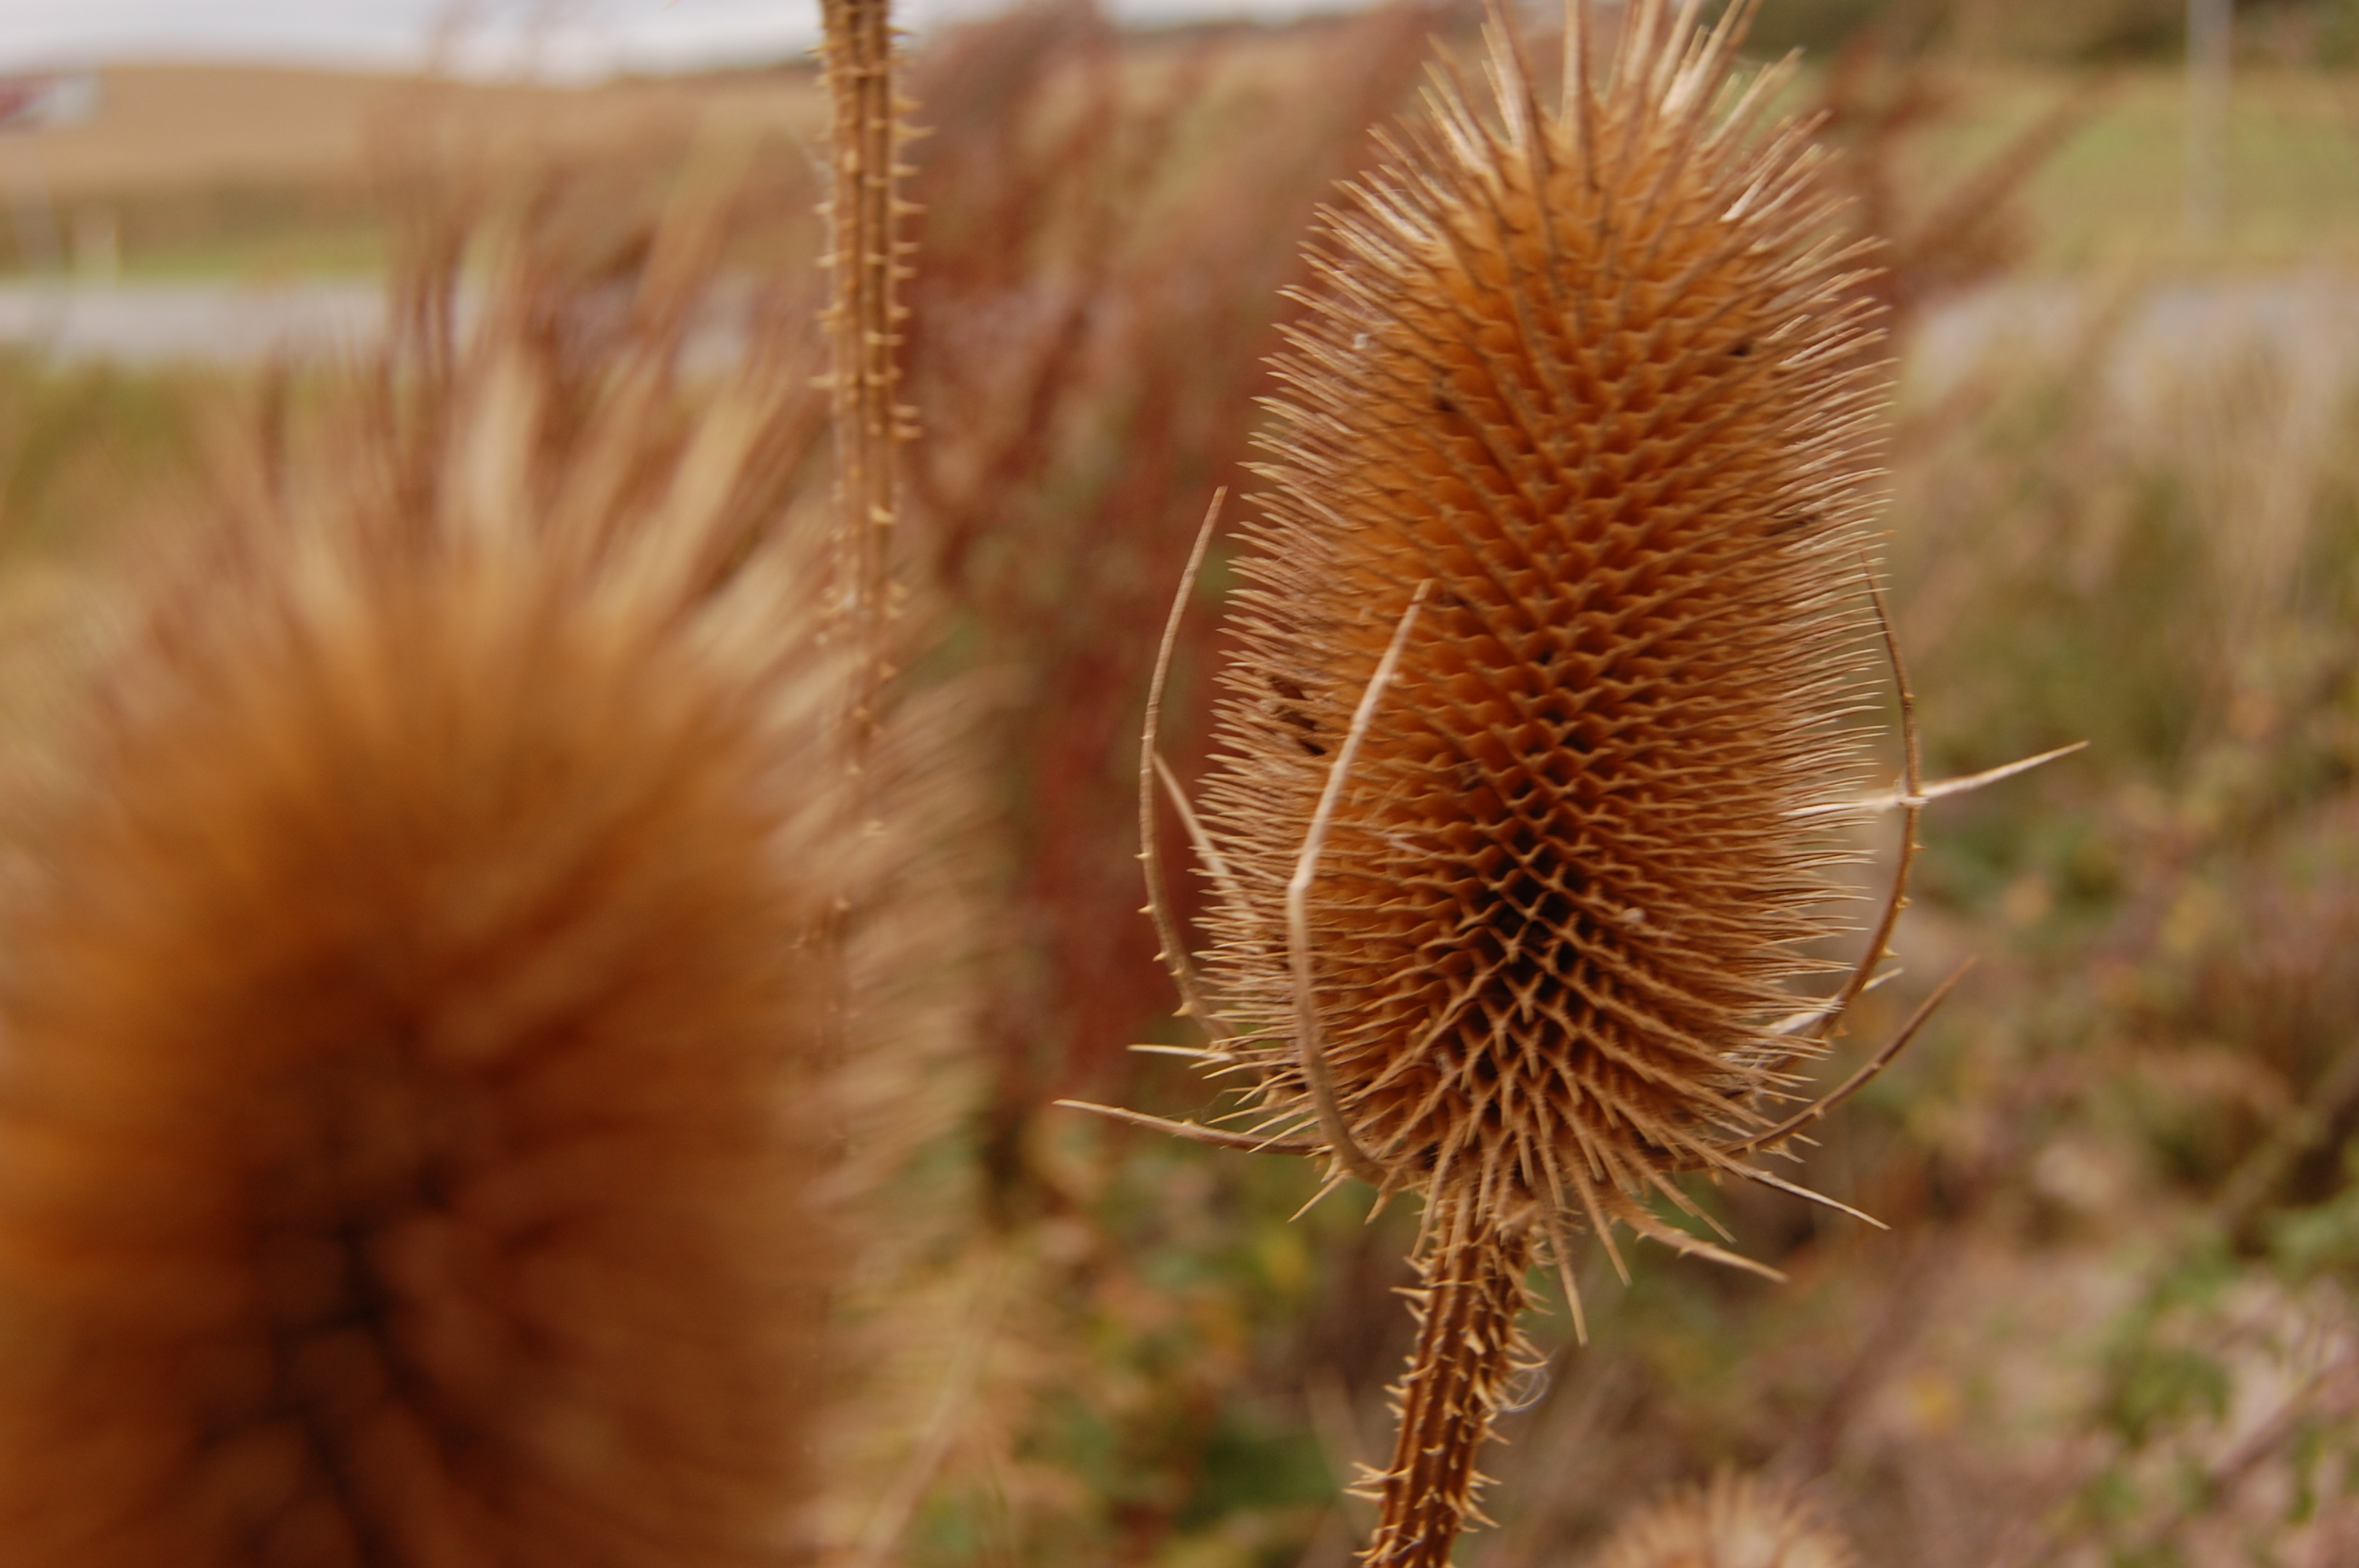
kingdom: Plantae
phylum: Tracheophyta
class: Magnoliopsida
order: Dipsacales
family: Caprifoliaceae
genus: Dipsacus
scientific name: Dipsacus fullonum
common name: Teasel
